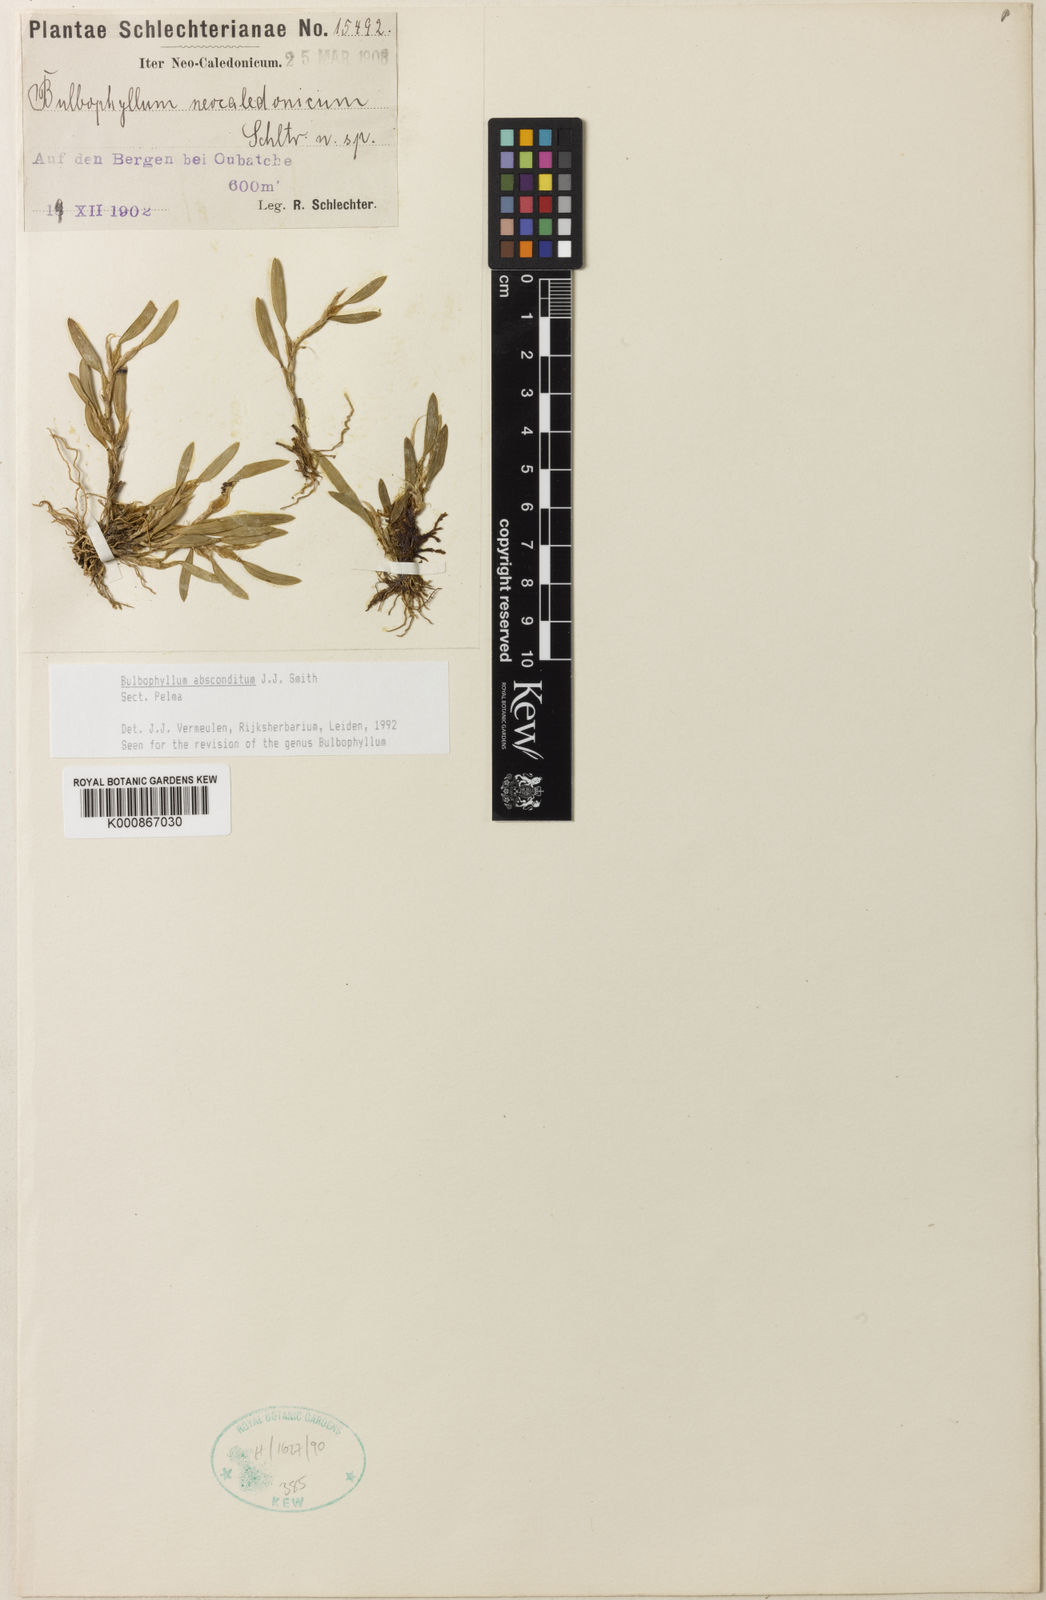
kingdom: Plantae
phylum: Tracheophyta
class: Liliopsida
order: Asparagales
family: Orchidaceae
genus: Bulbophyllum
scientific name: Bulbophyllum
